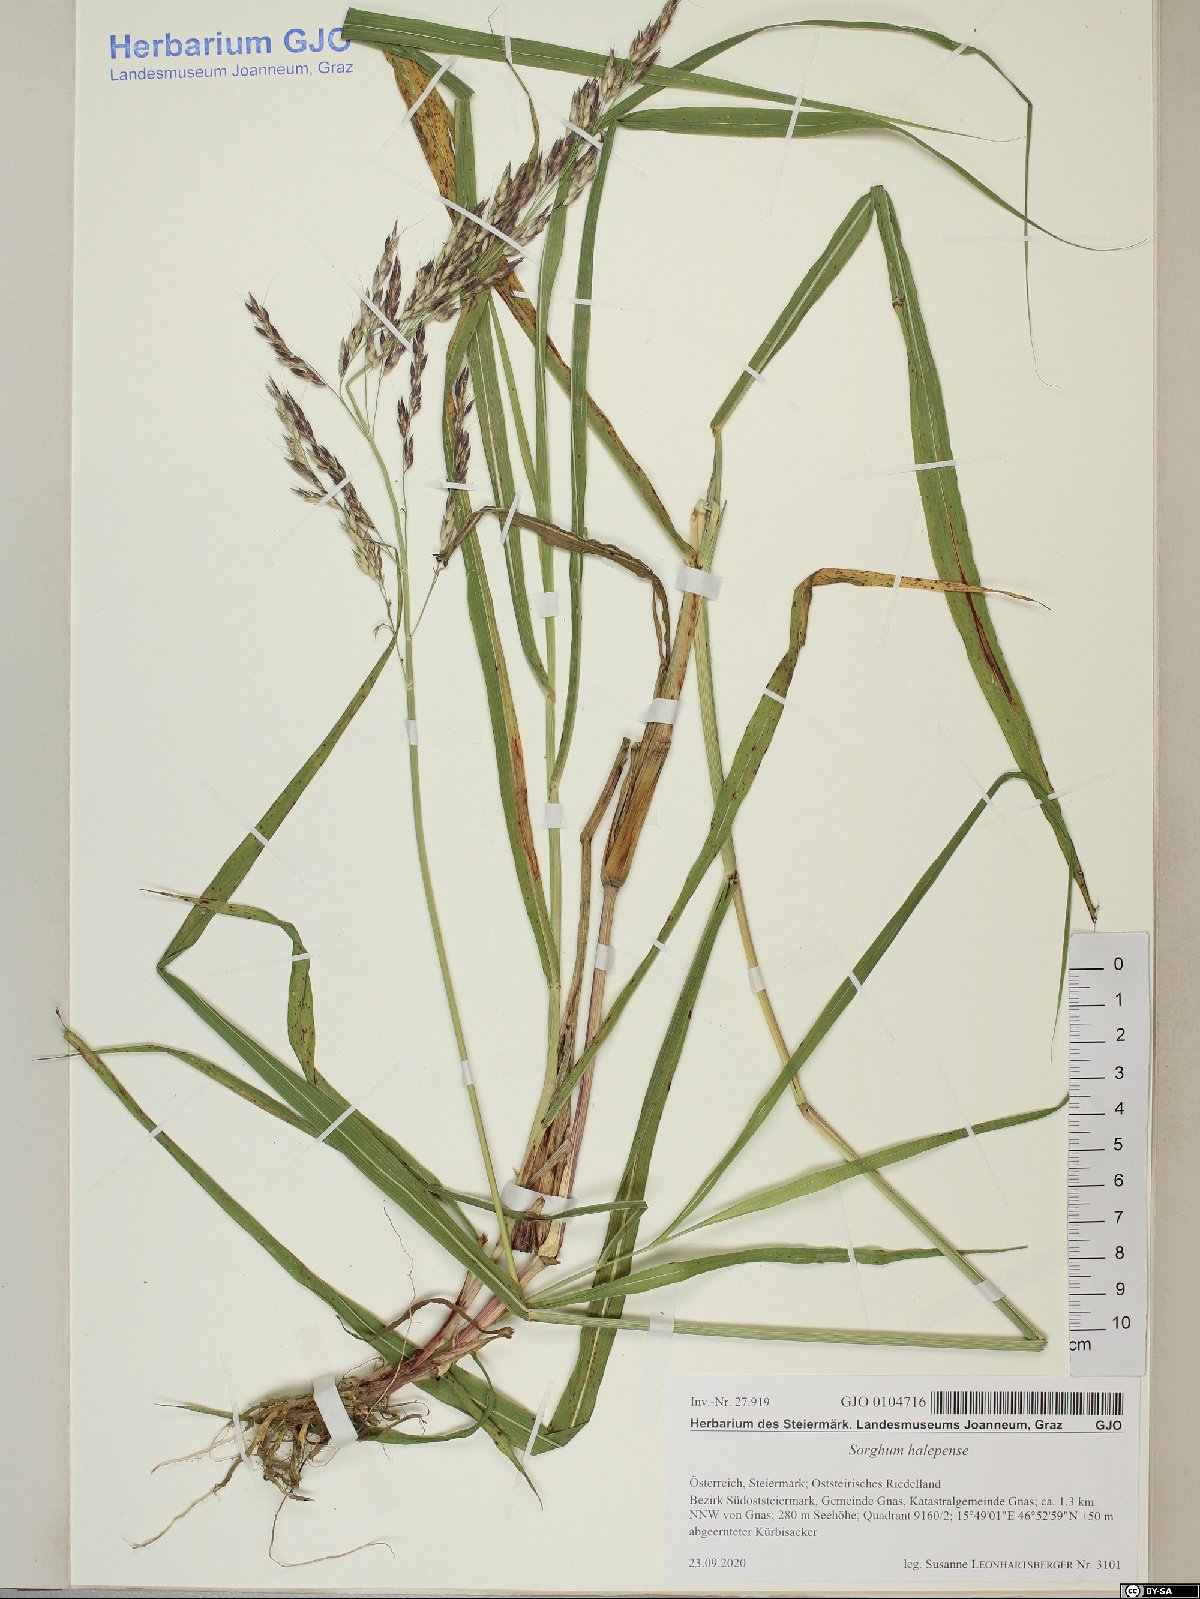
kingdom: Plantae
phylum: Tracheophyta
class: Liliopsida
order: Poales
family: Poaceae
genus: Sorghum
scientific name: Sorghum halepense
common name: Johnson-grass
